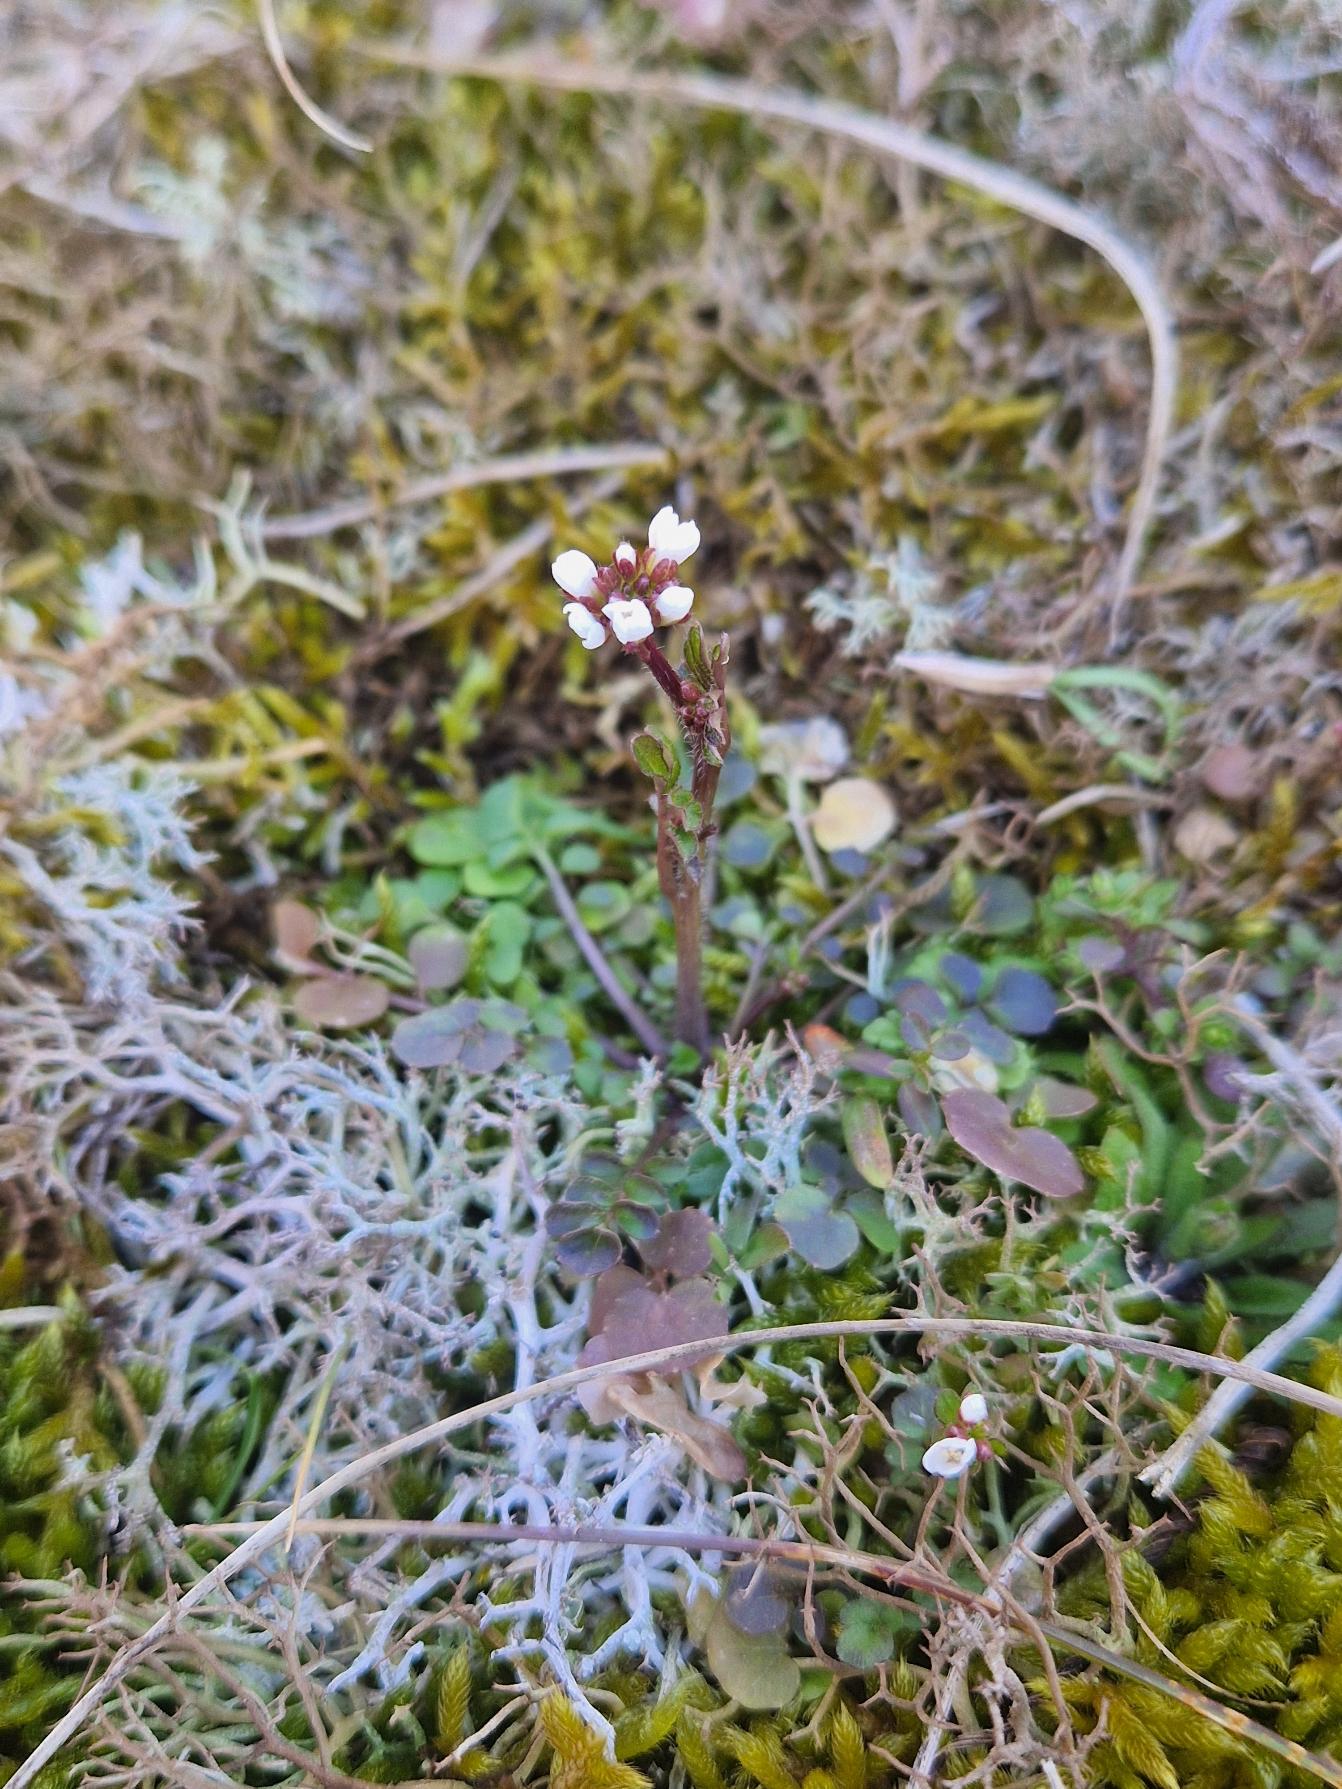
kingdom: Plantae
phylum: Tracheophyta
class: Magnoliopsida
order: Brassicales
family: Brassicaceae
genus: Cardamine
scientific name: Cardamine hirsuta
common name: Roset-springklap
